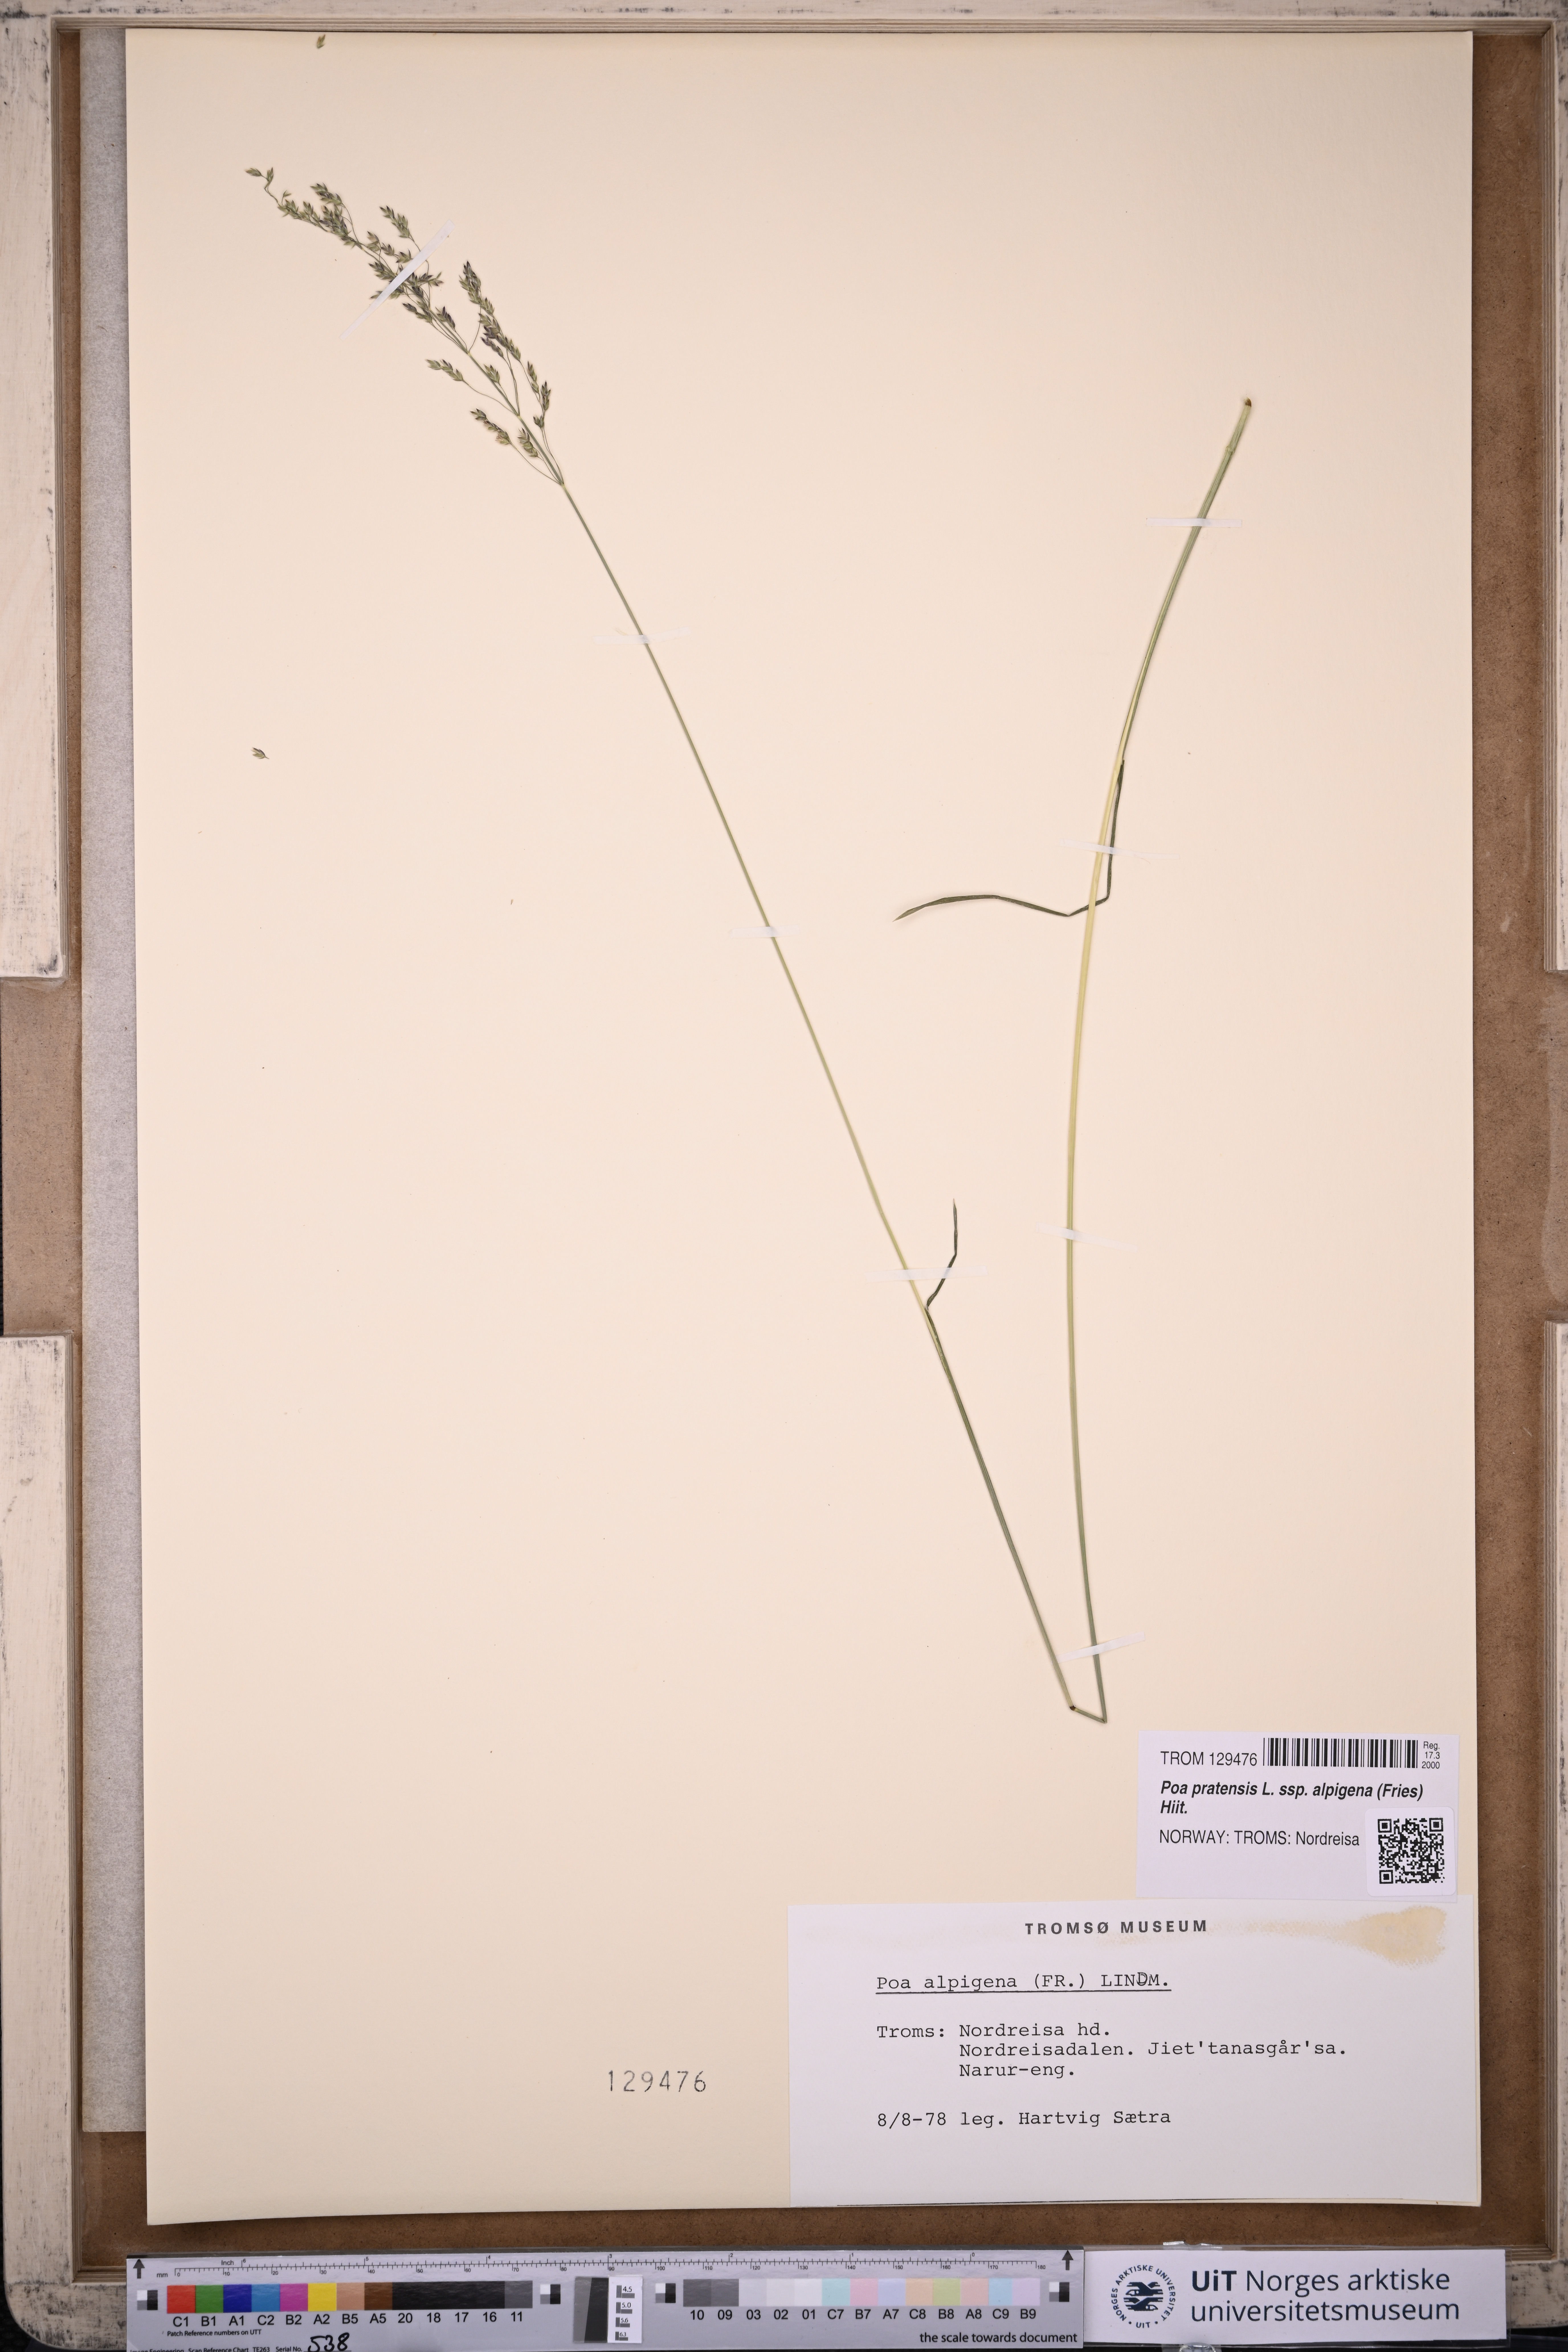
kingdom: Plantae
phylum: Tracheophyta
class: Liliopsida
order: Poales
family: Poaceae
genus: Poa
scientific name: Poa alpigena
